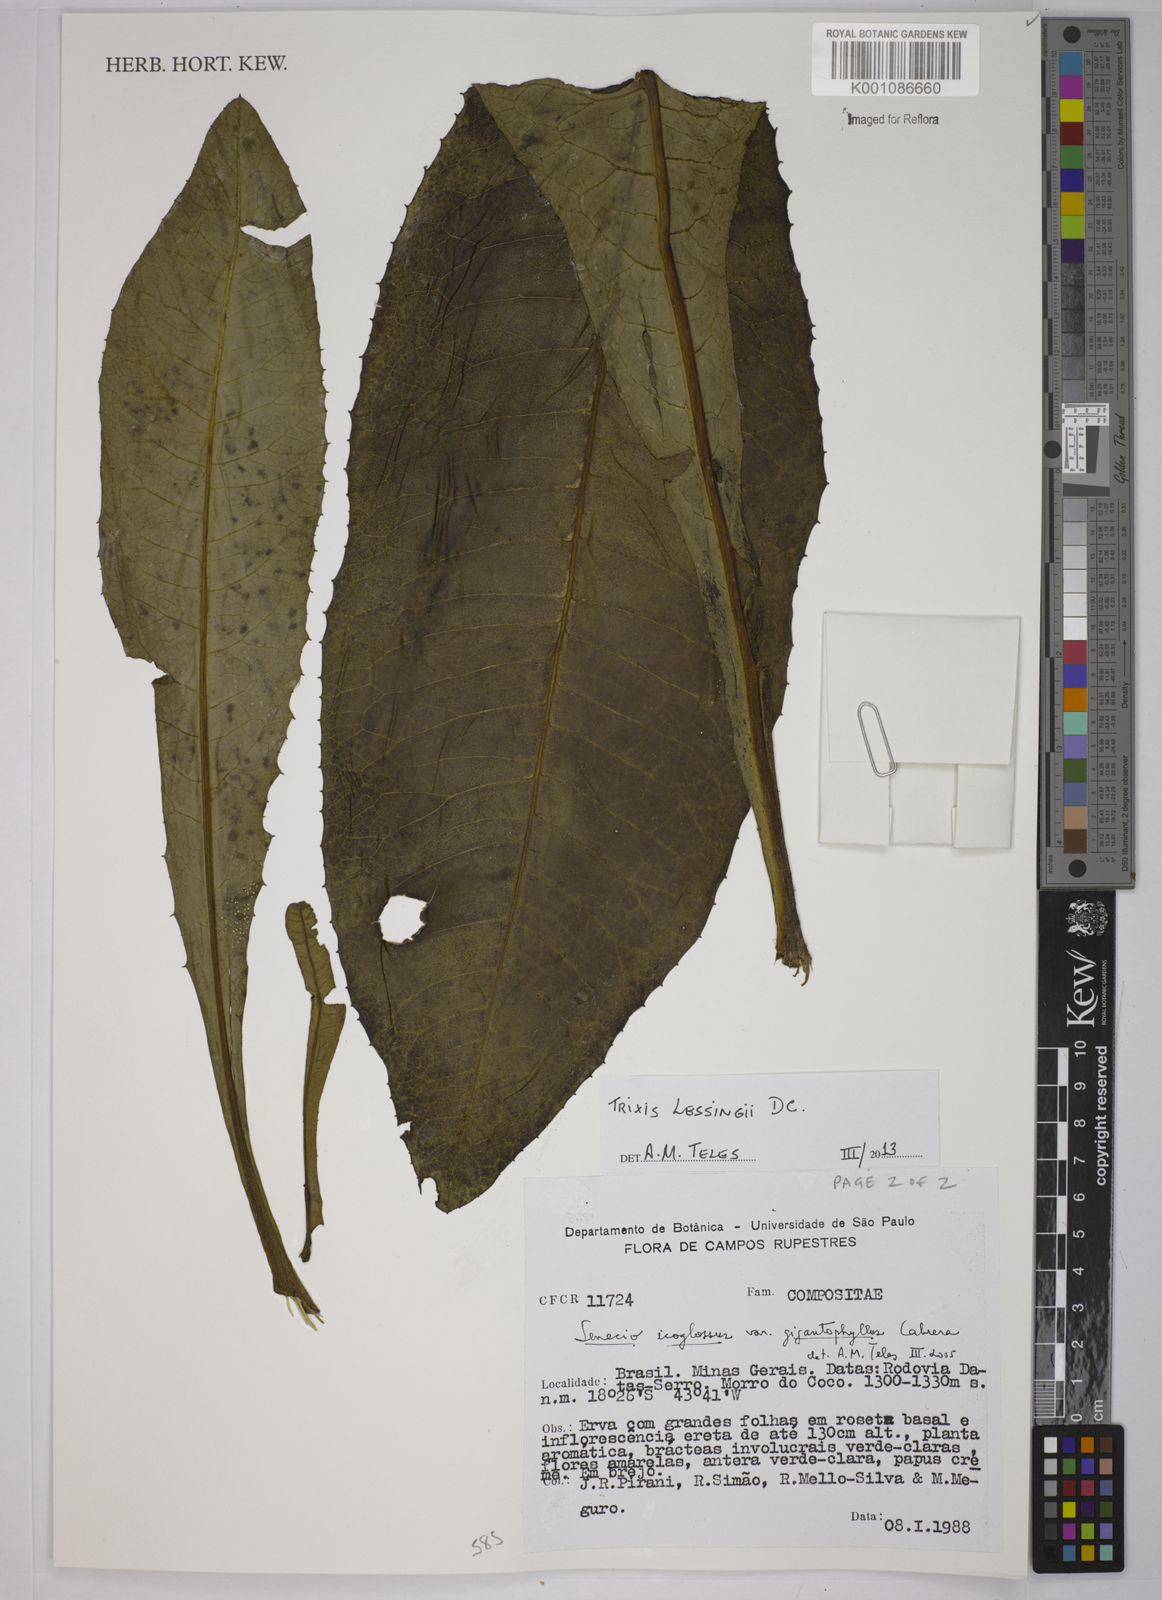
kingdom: Plantae
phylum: Tracheophyta
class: Magnoliopsida
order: Asterales
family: Asteraceae
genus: Trixis
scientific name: Trixis lessingii
